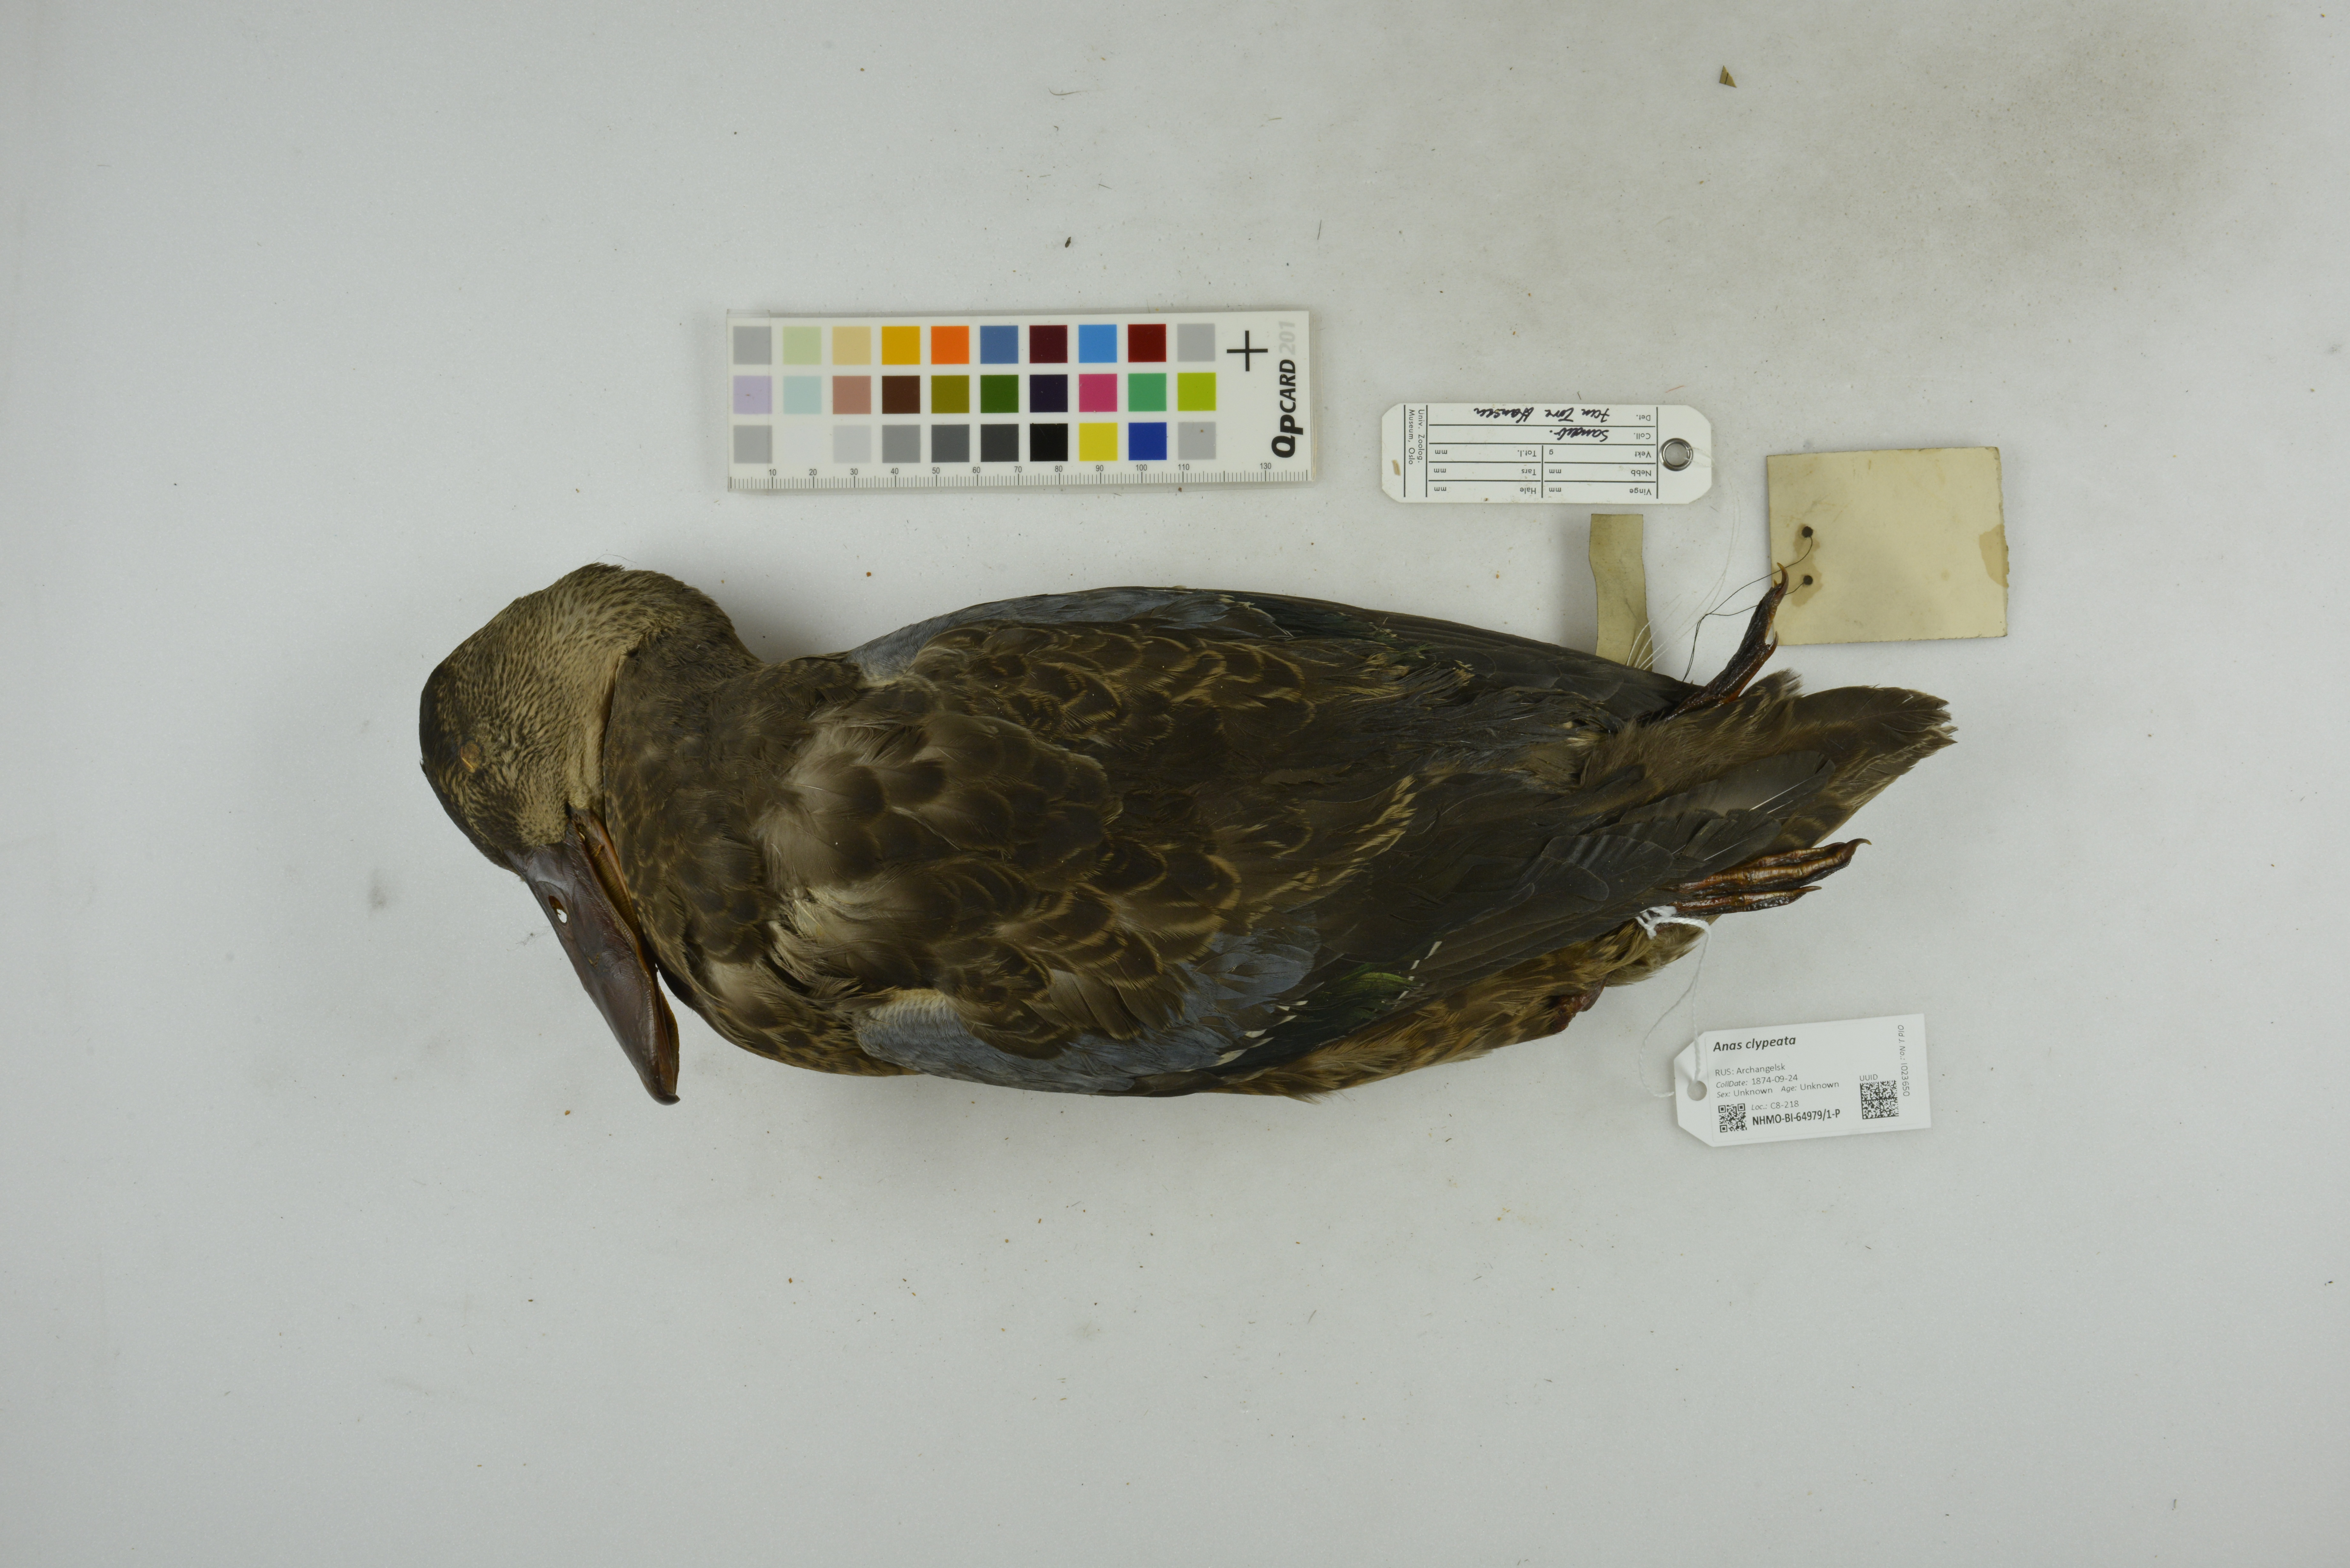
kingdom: Animalia
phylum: Chordata
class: Aves
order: Anseriformes
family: Anatidae
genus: Spatula
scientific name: Spatula clypeata
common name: Northern shoveler
